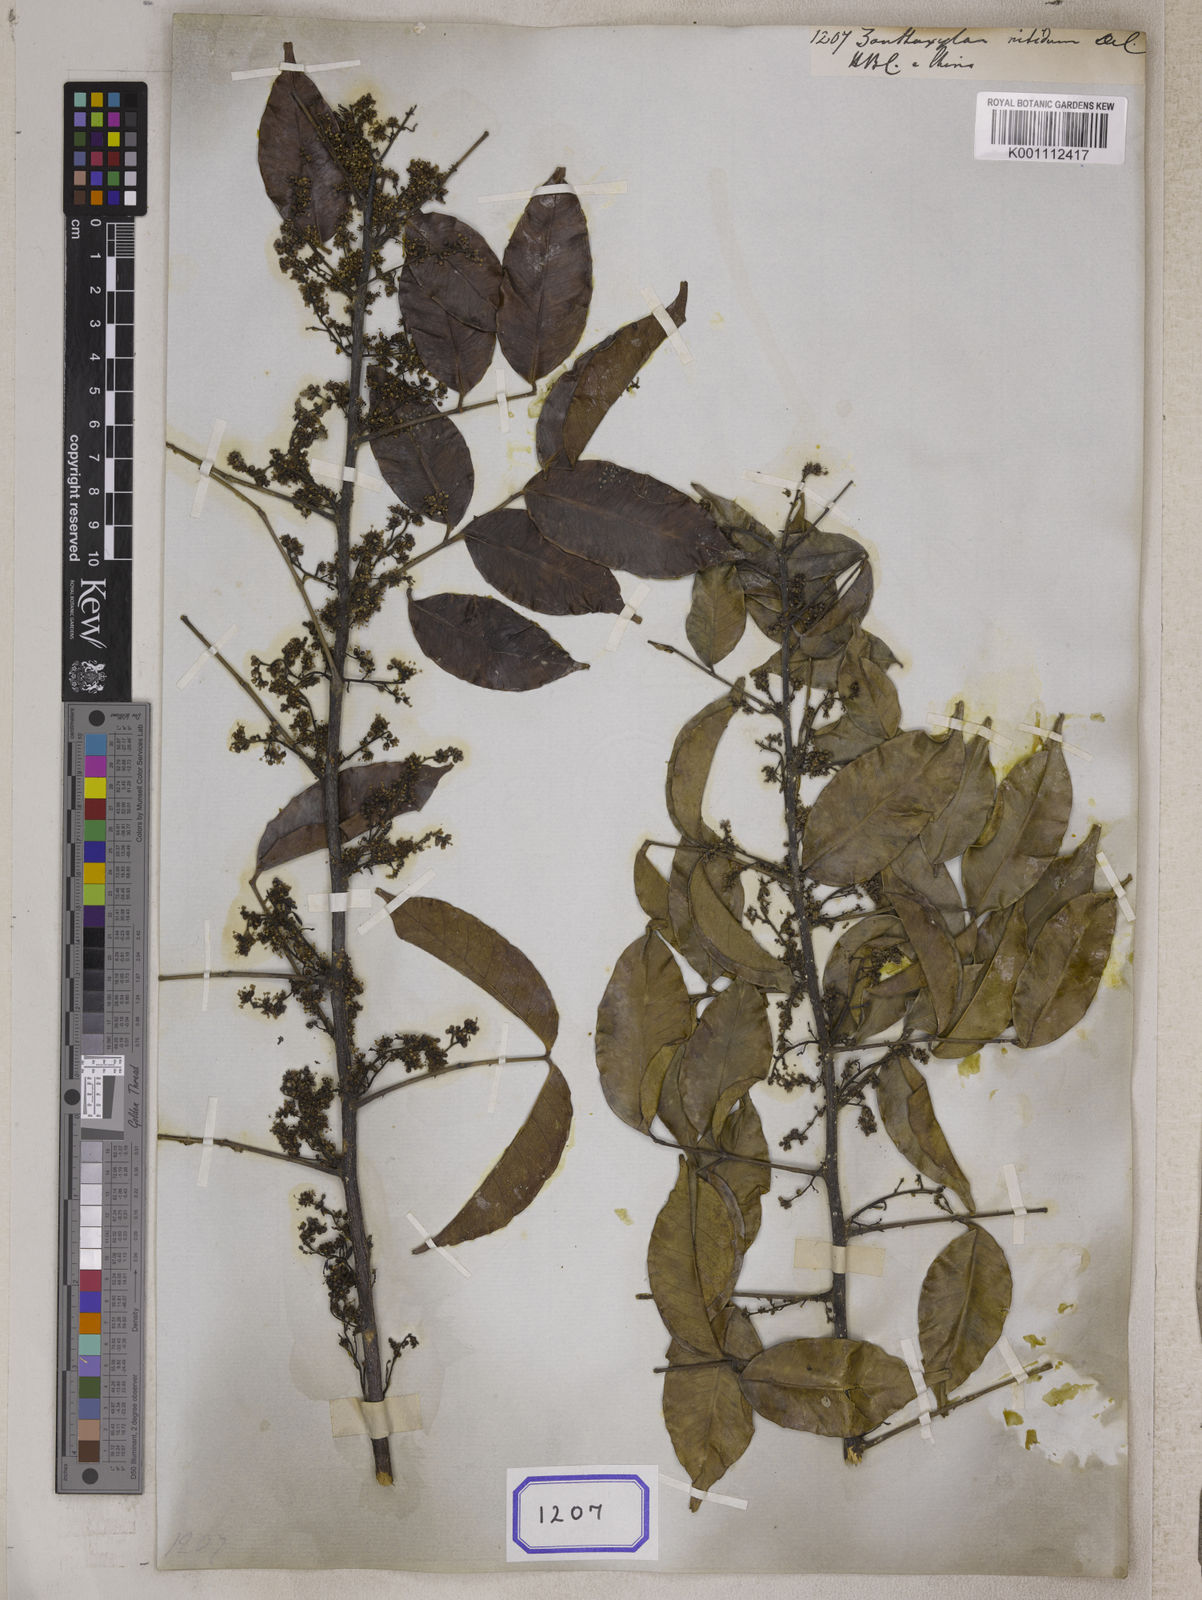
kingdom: Plantae
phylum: Tracheophyta
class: Magnoliopsida
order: Sapindales
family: Rutaceae
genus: Zanthoxylum
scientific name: Zanthoxylum nitidum
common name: Shiny-leaf prickly-ash
